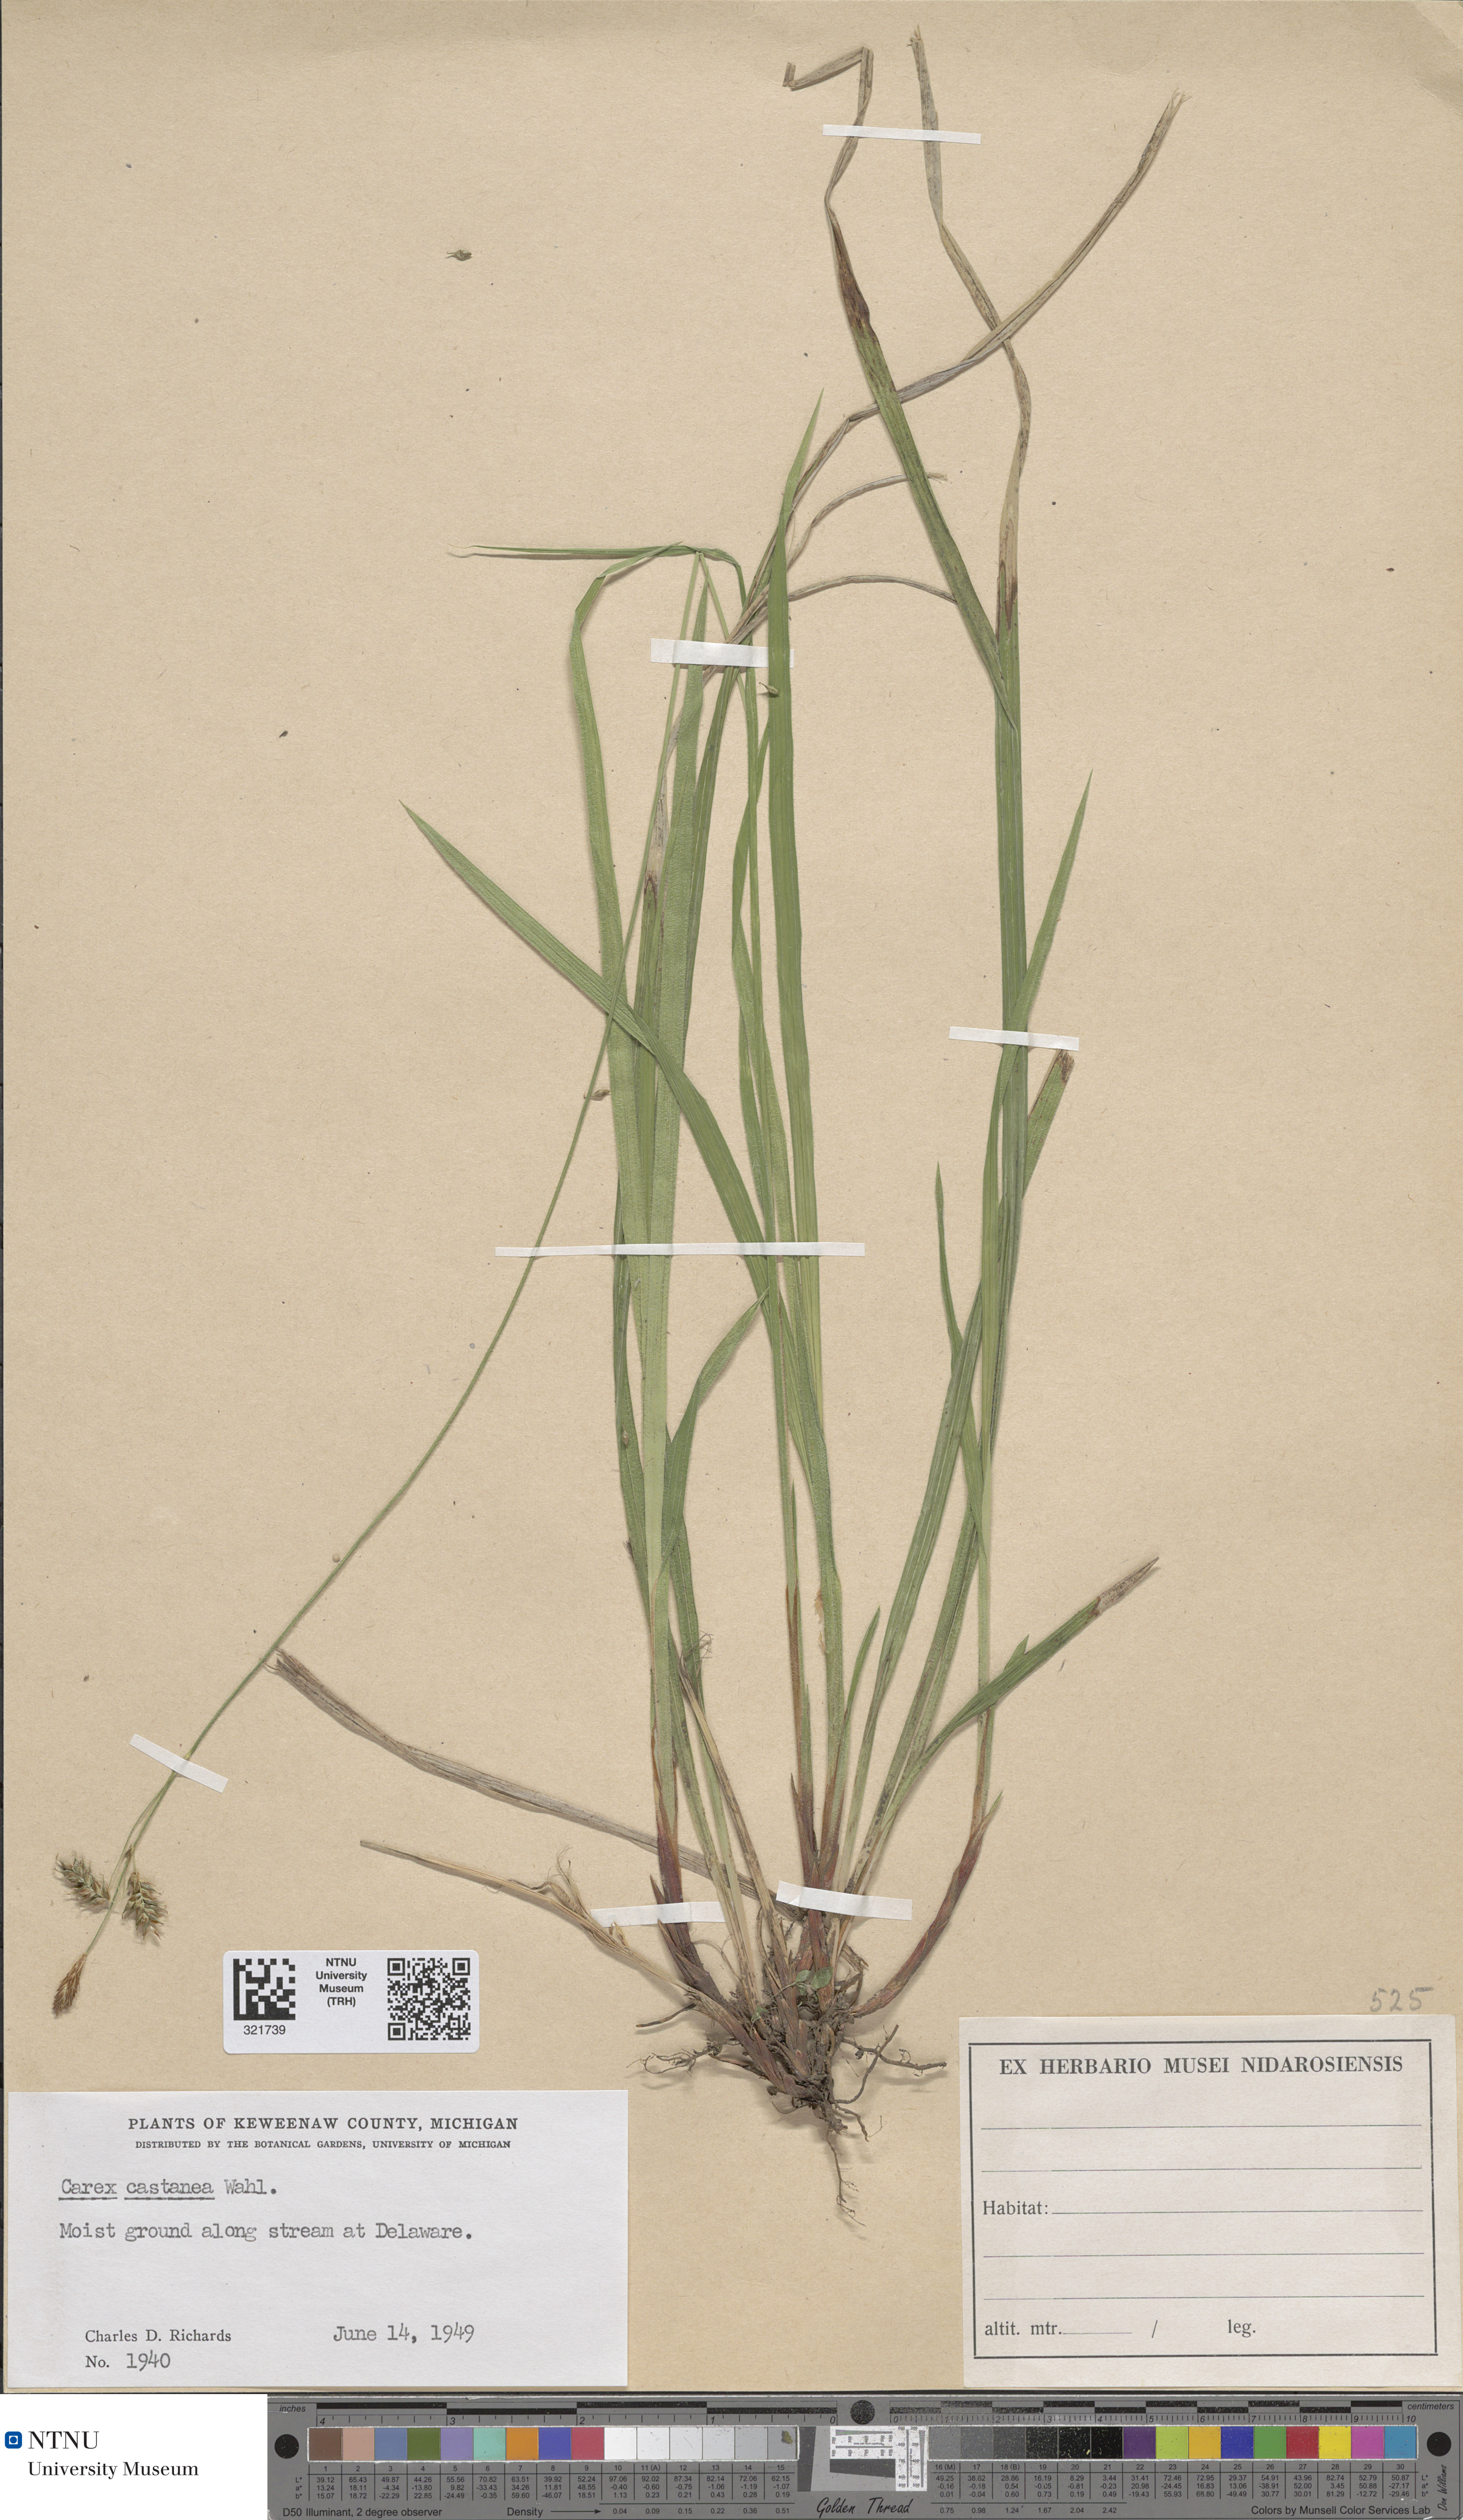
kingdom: Plantae
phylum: Tracheophyta
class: Liliopsida
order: Poales
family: Cyperaceae
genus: Carex
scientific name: Carex castanea
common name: Chestnut sedge
